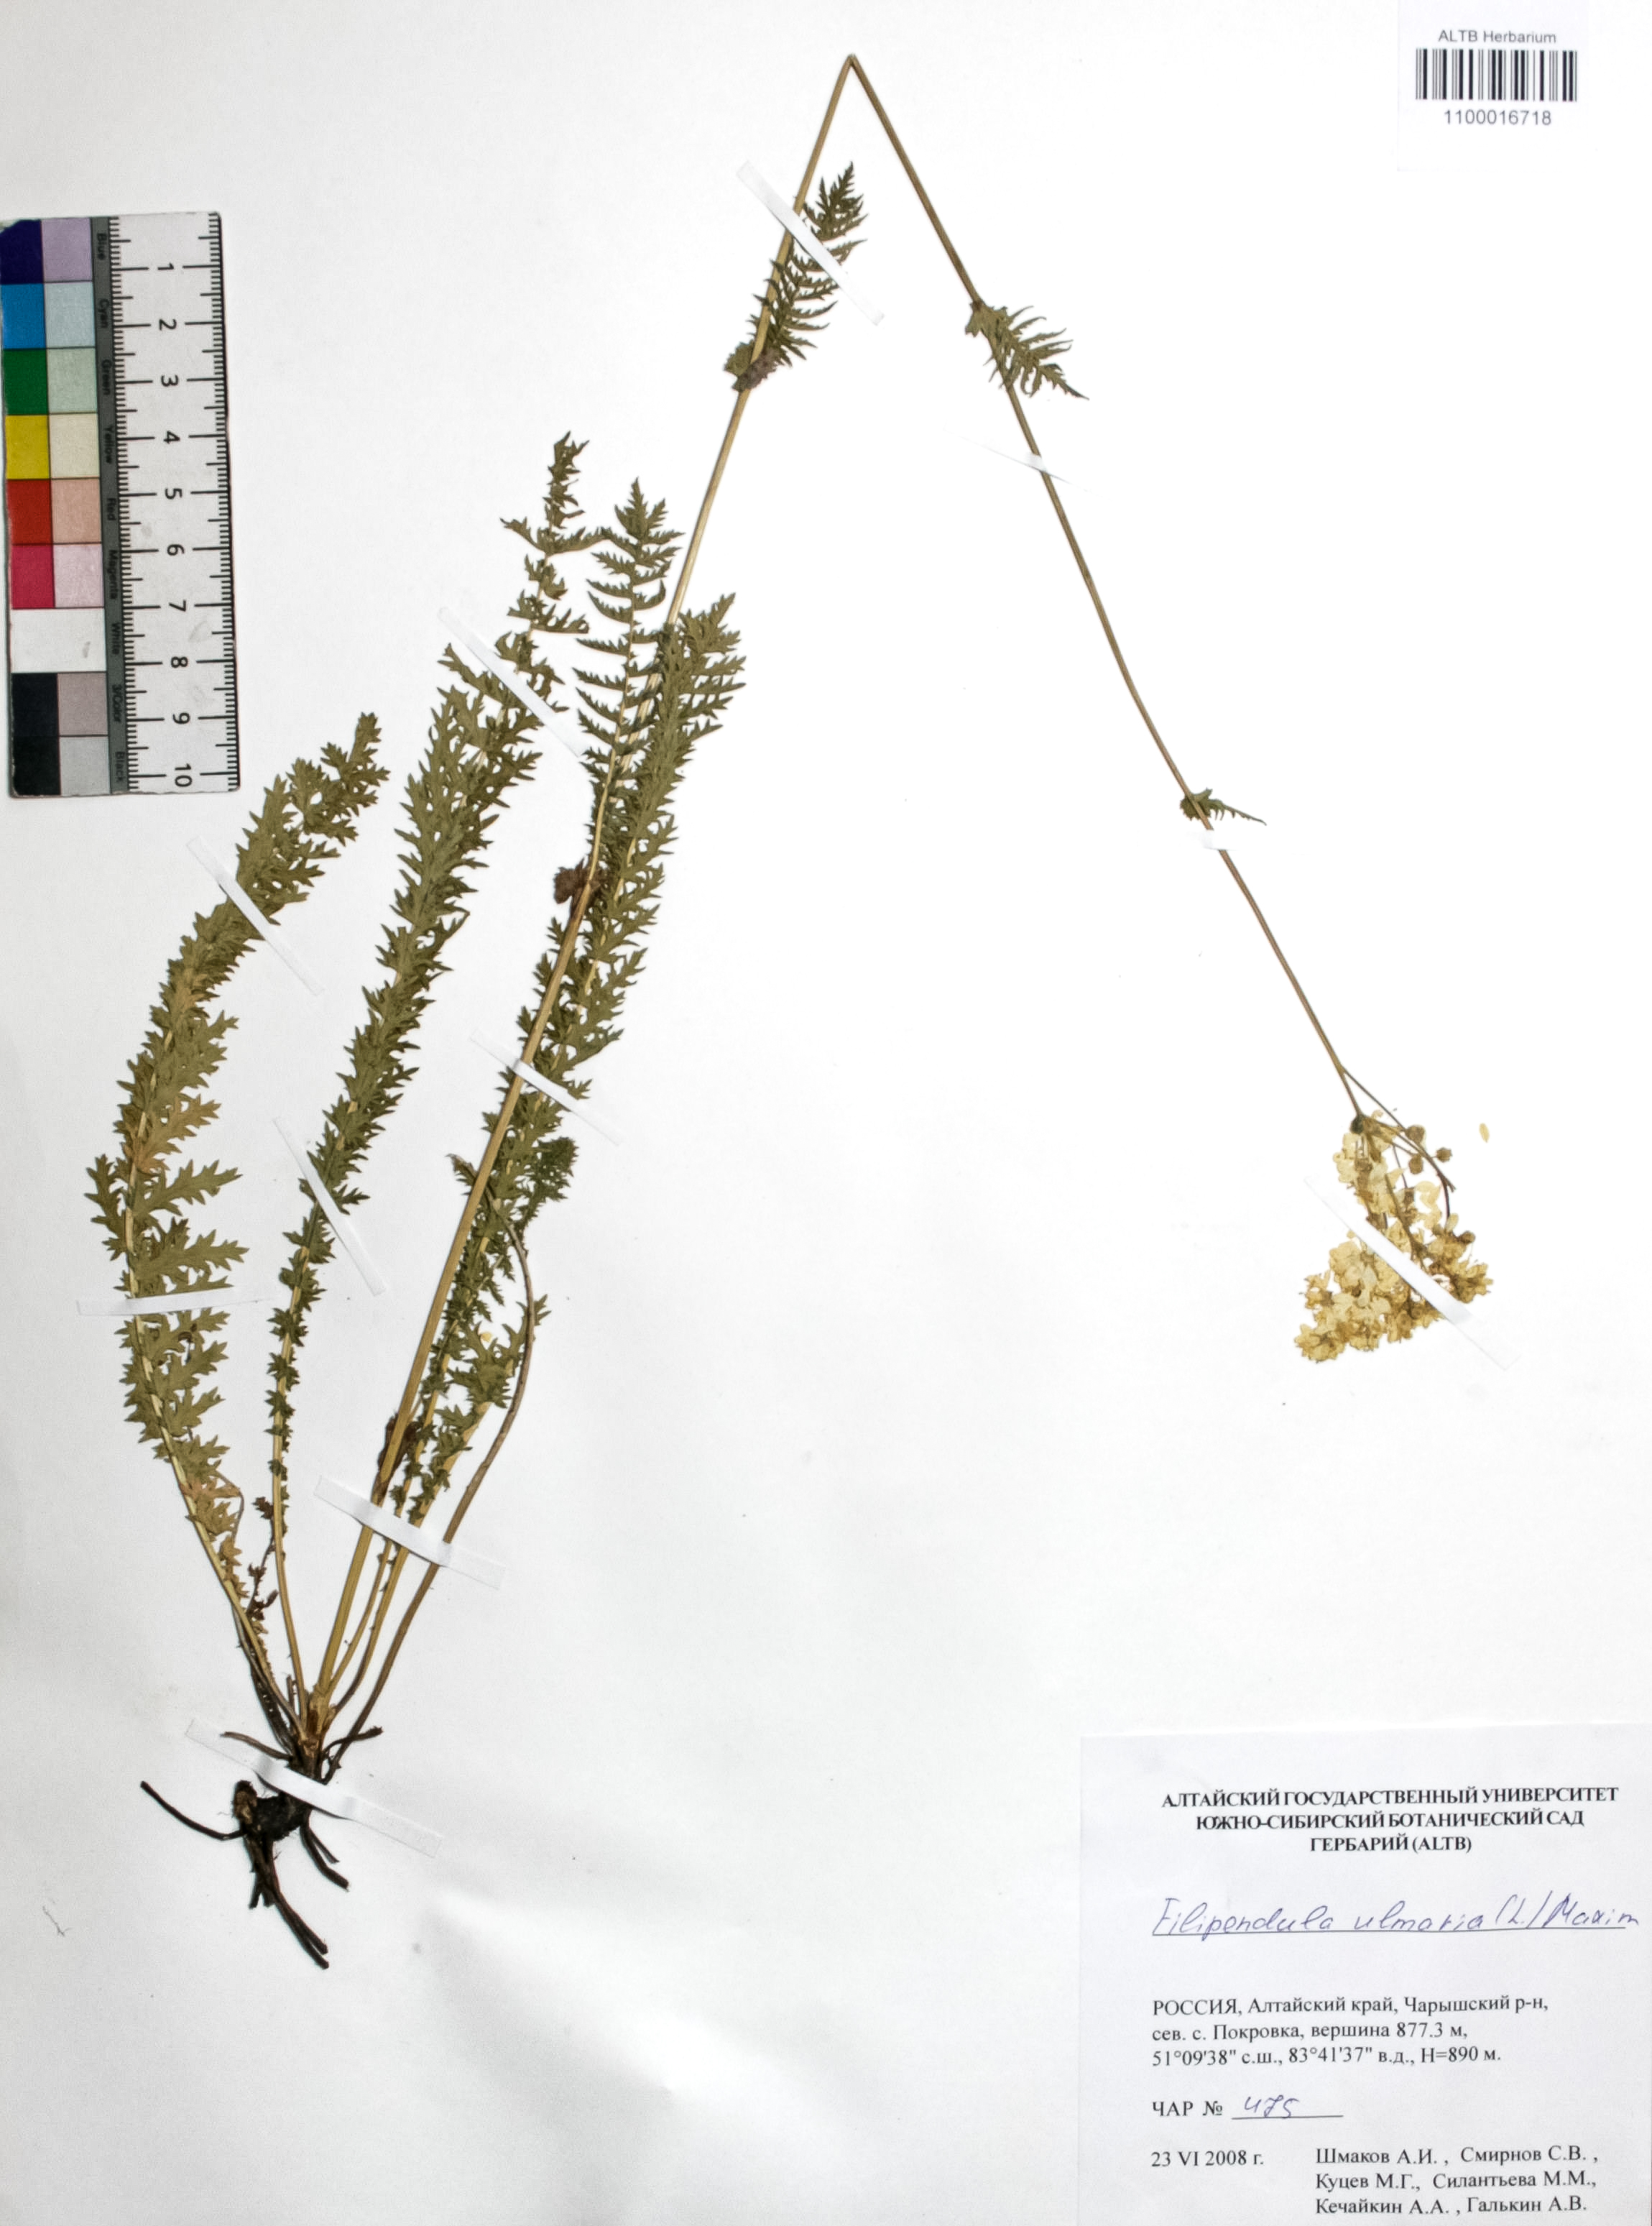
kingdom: Plantae
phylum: Tracheophyta
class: Magnoliopsida
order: Rosales
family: Rosaceae
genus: Filipendula
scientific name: Filipendula ulmaria
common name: Meadowsweet
